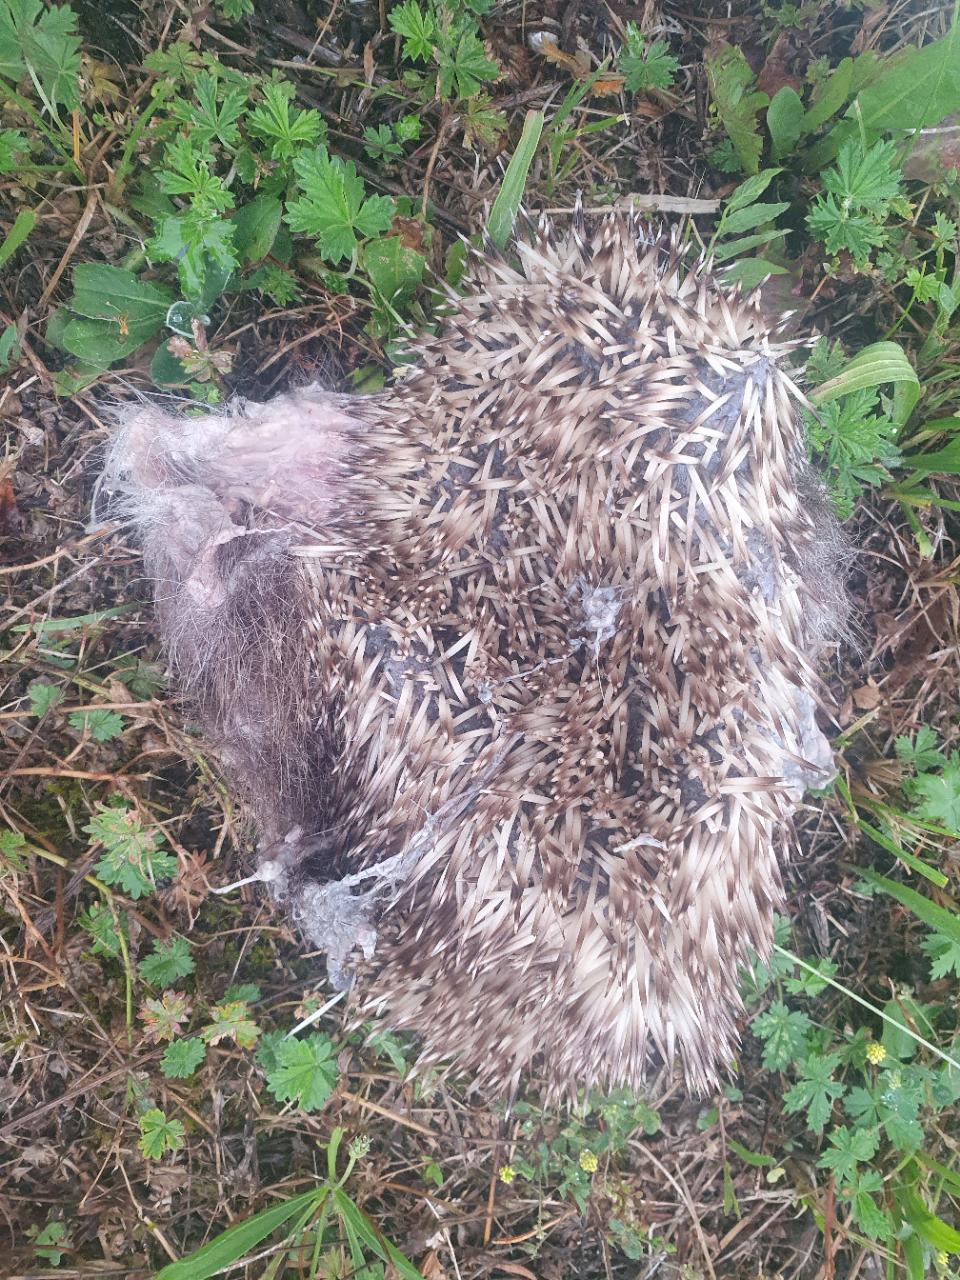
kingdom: Animalia
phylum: Chordata
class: Mammalia
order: Erinaceomorpha
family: Erinaceidae
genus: Erinaceus
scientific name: Erinaceus
